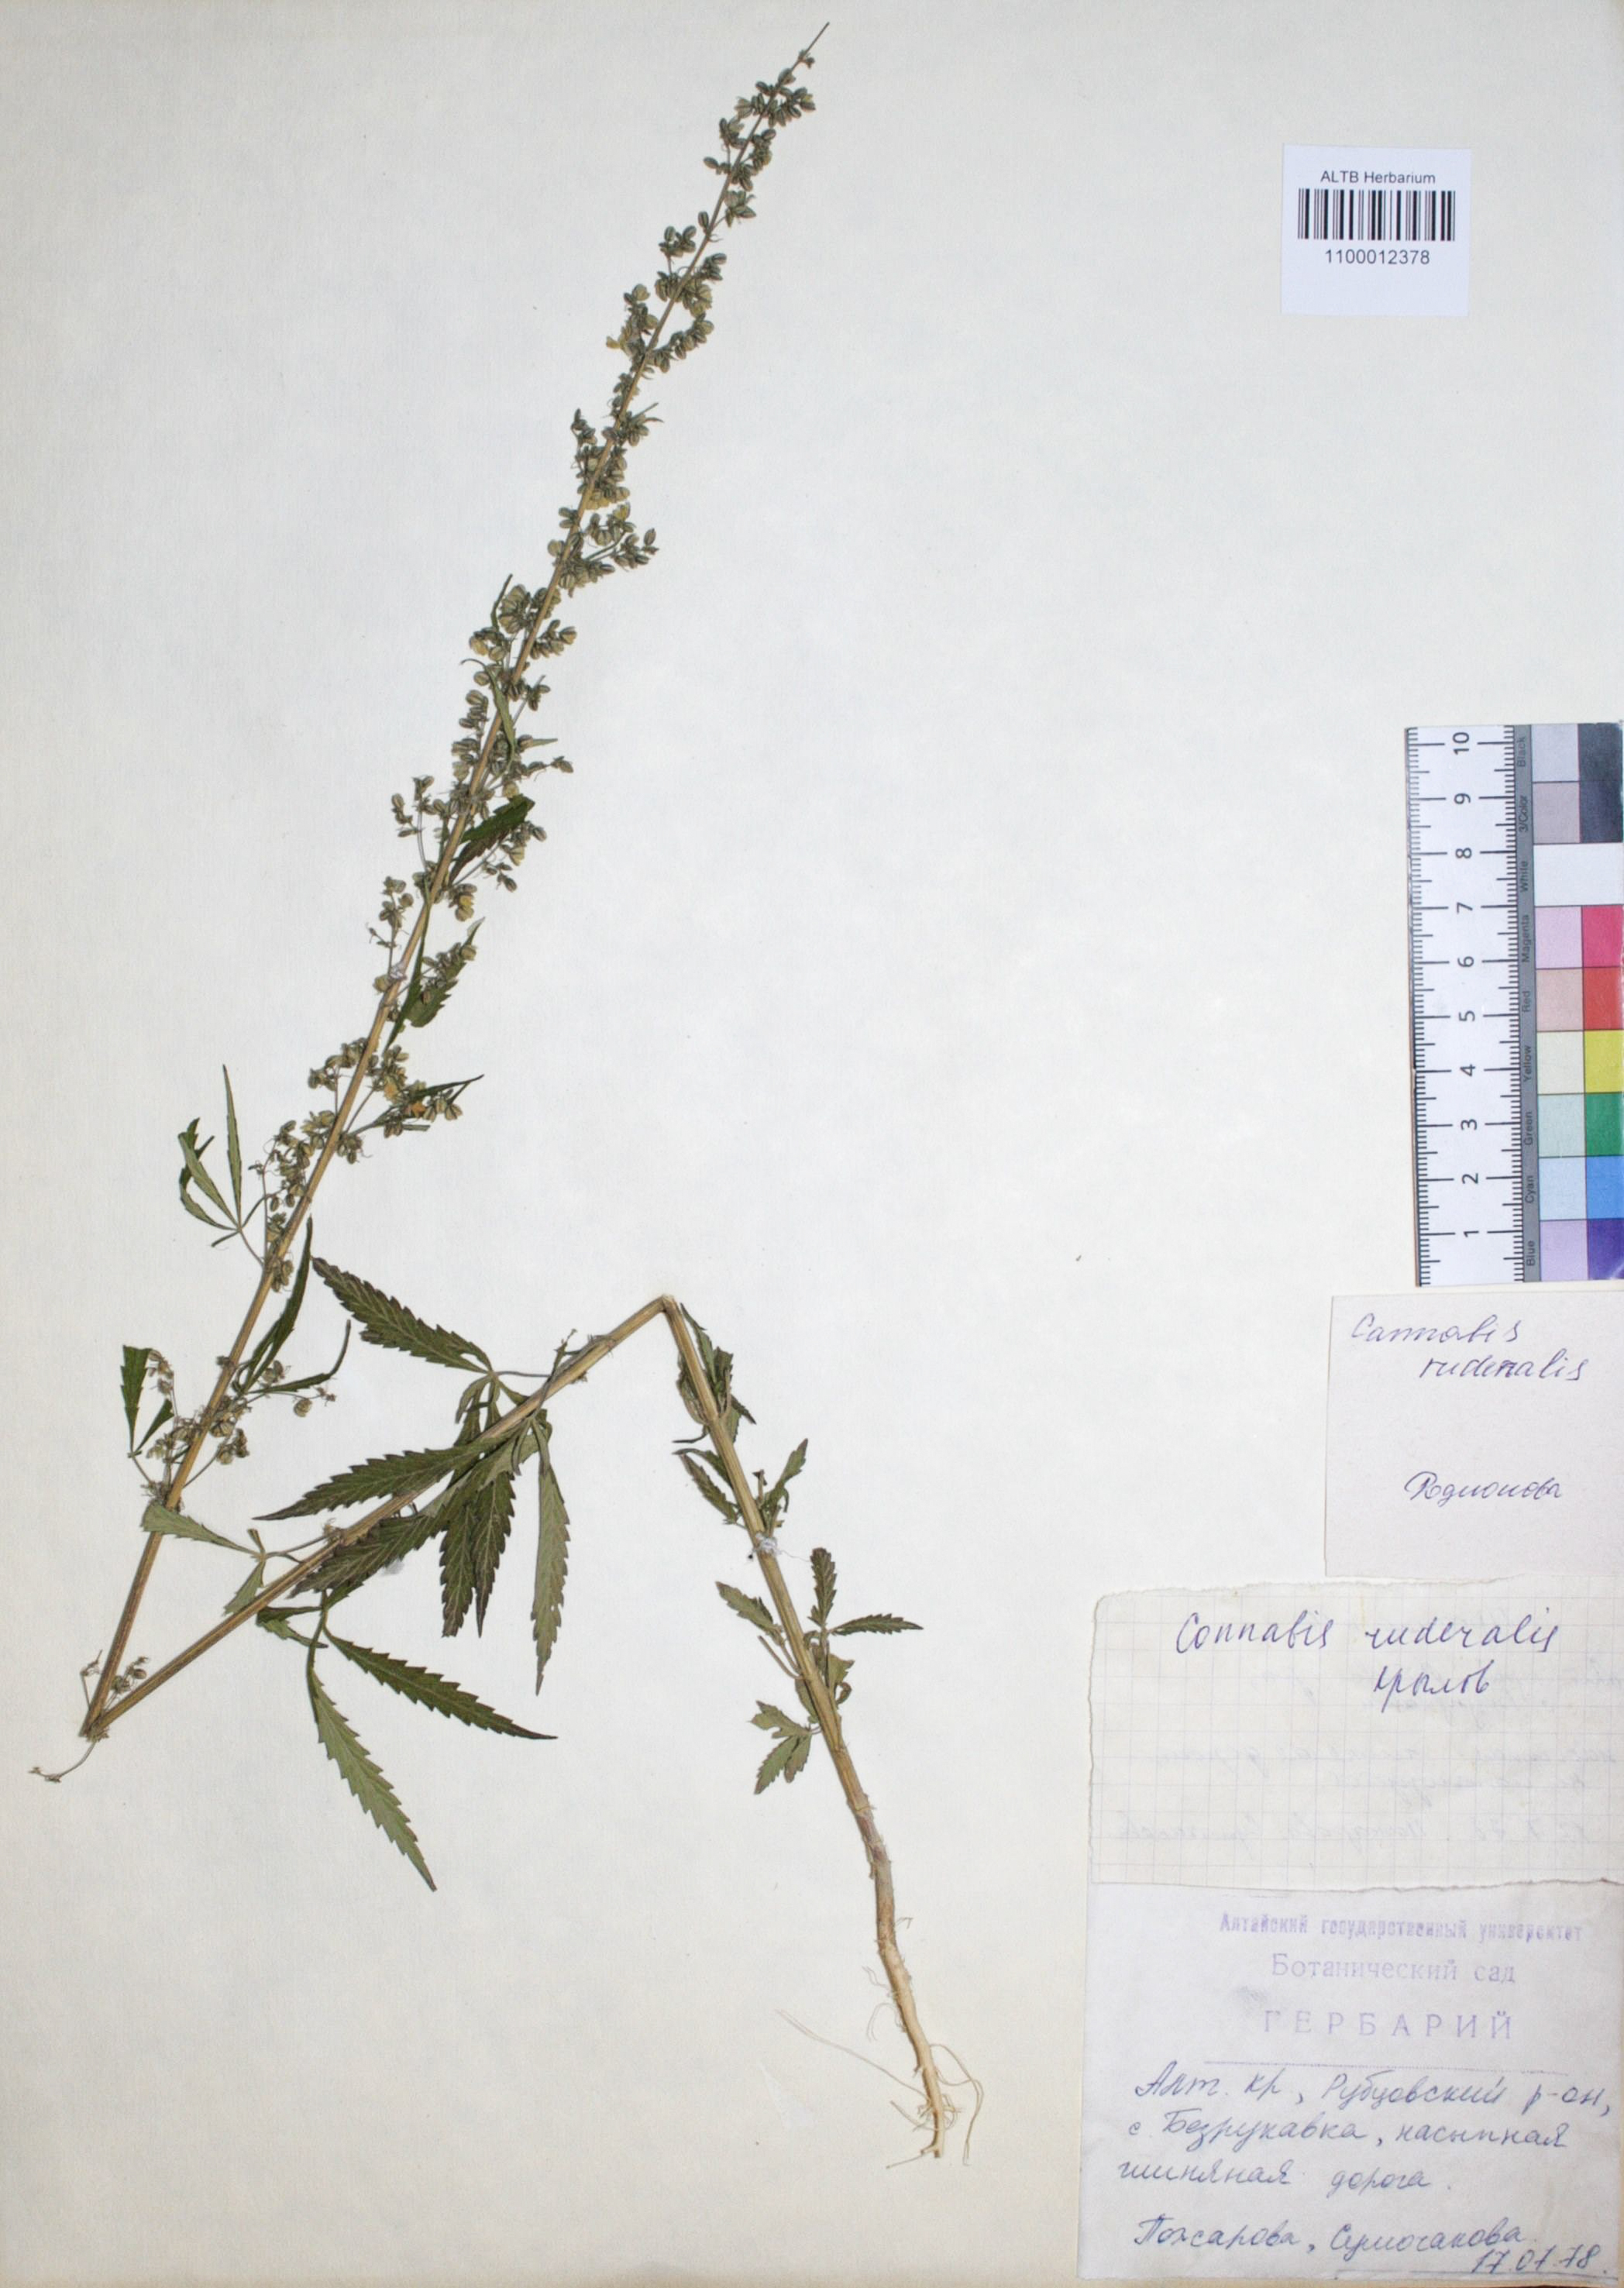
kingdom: Plantae
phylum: Tracheophyta
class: Magnoliopsida
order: Rosales
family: Cannabaceae
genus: Cannabis
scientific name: Cannabis sativa
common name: Hemp
